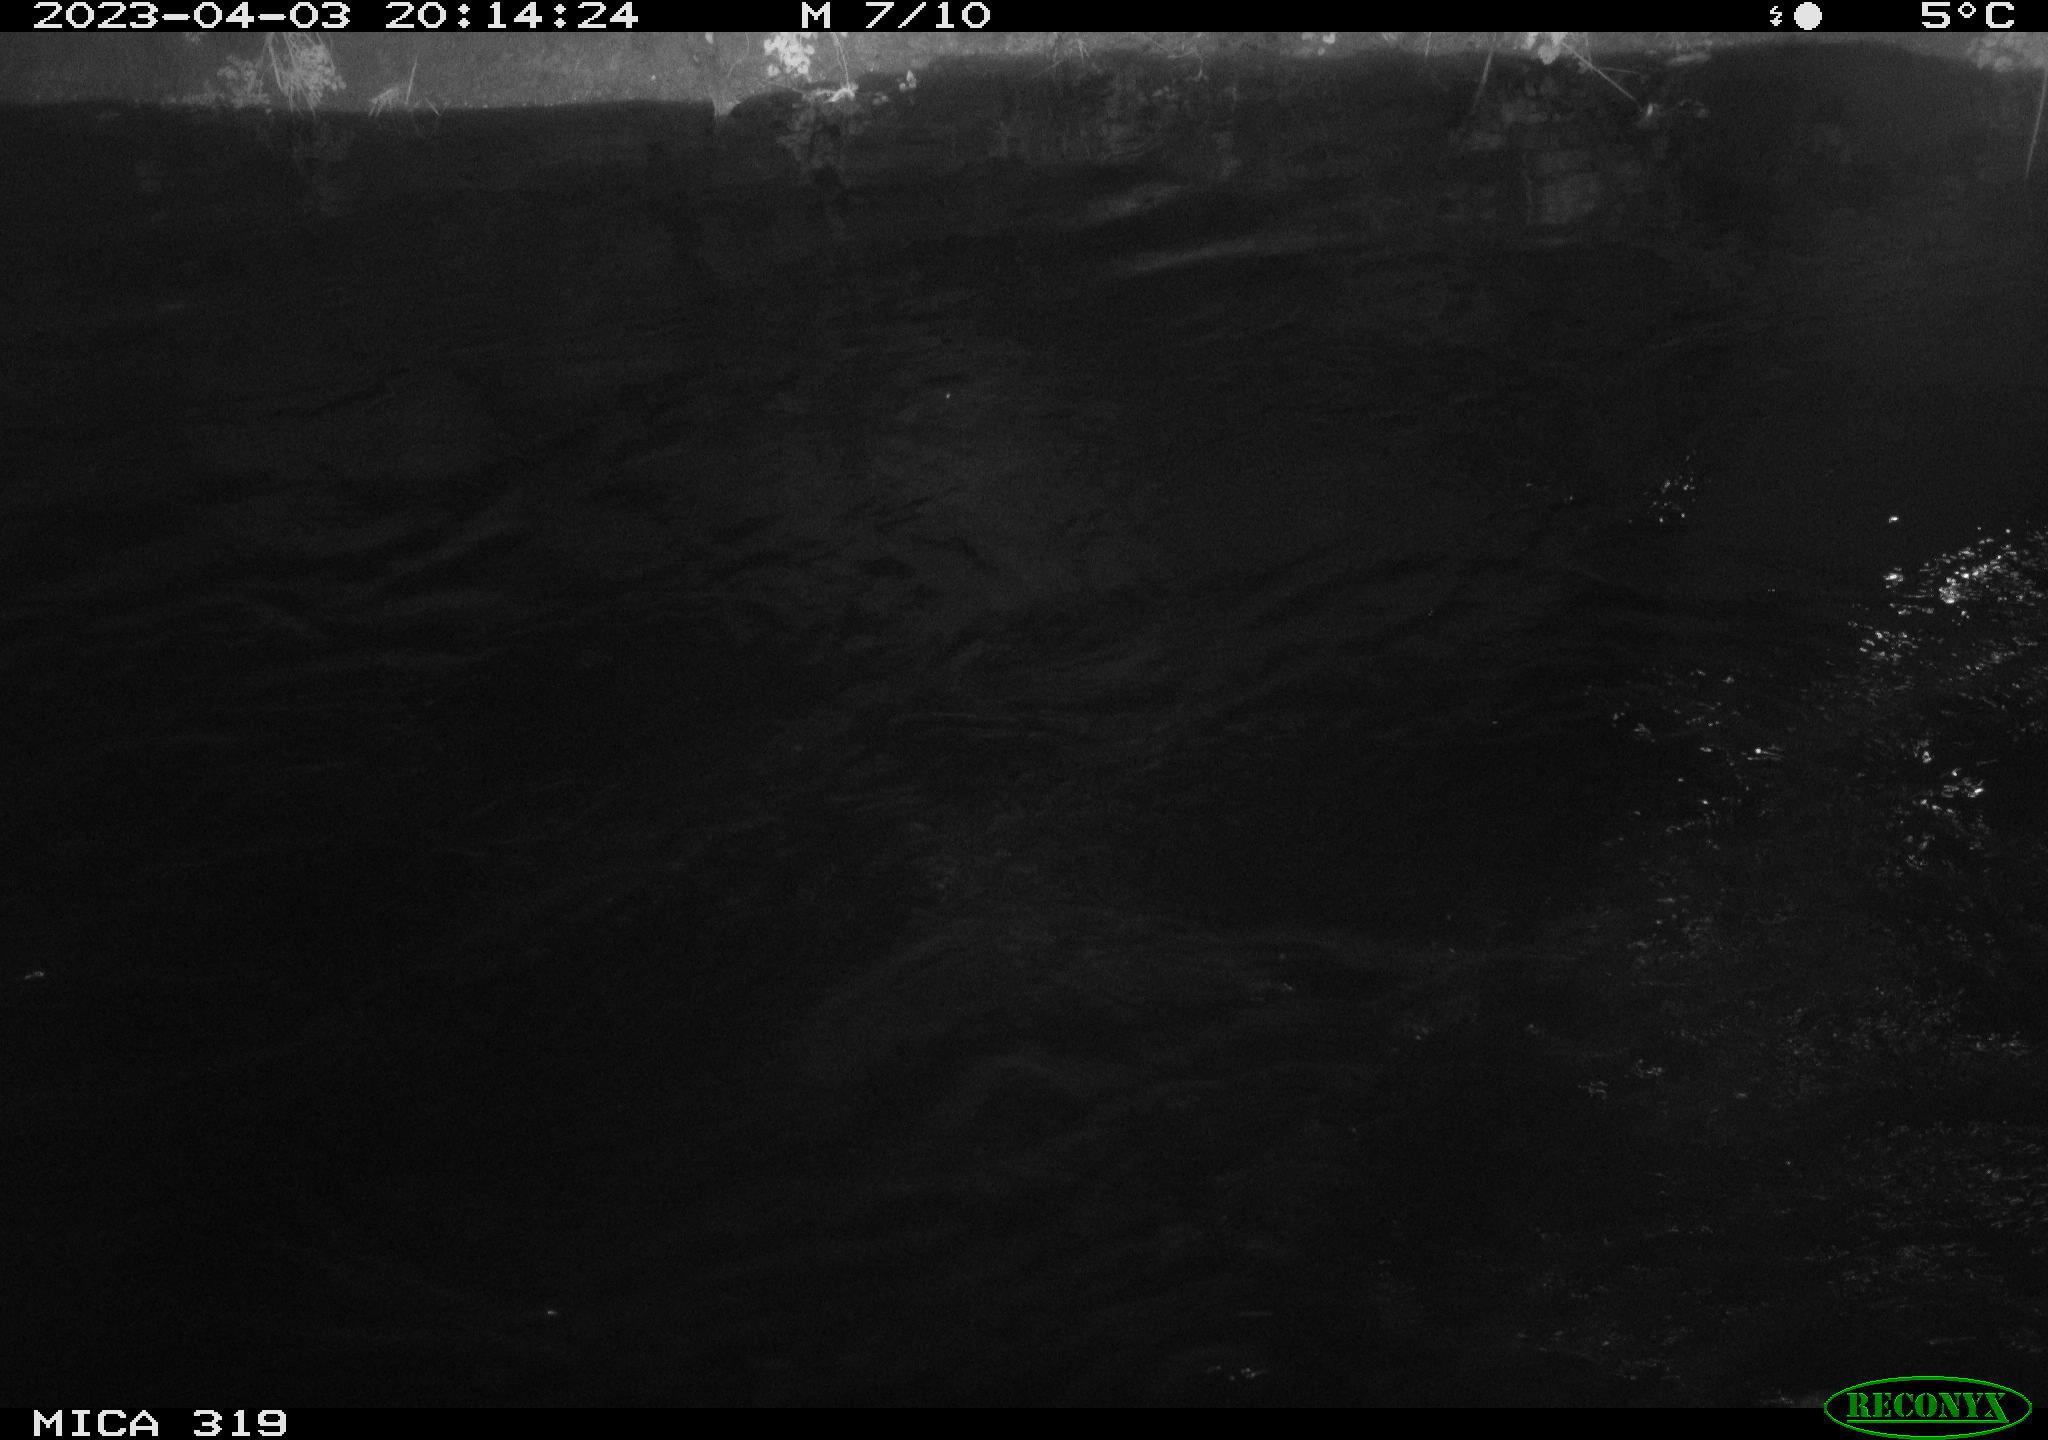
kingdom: Animalia
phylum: Chordata
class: Aves
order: Anseriformes
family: Anatidae
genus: Anas
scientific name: Anas
